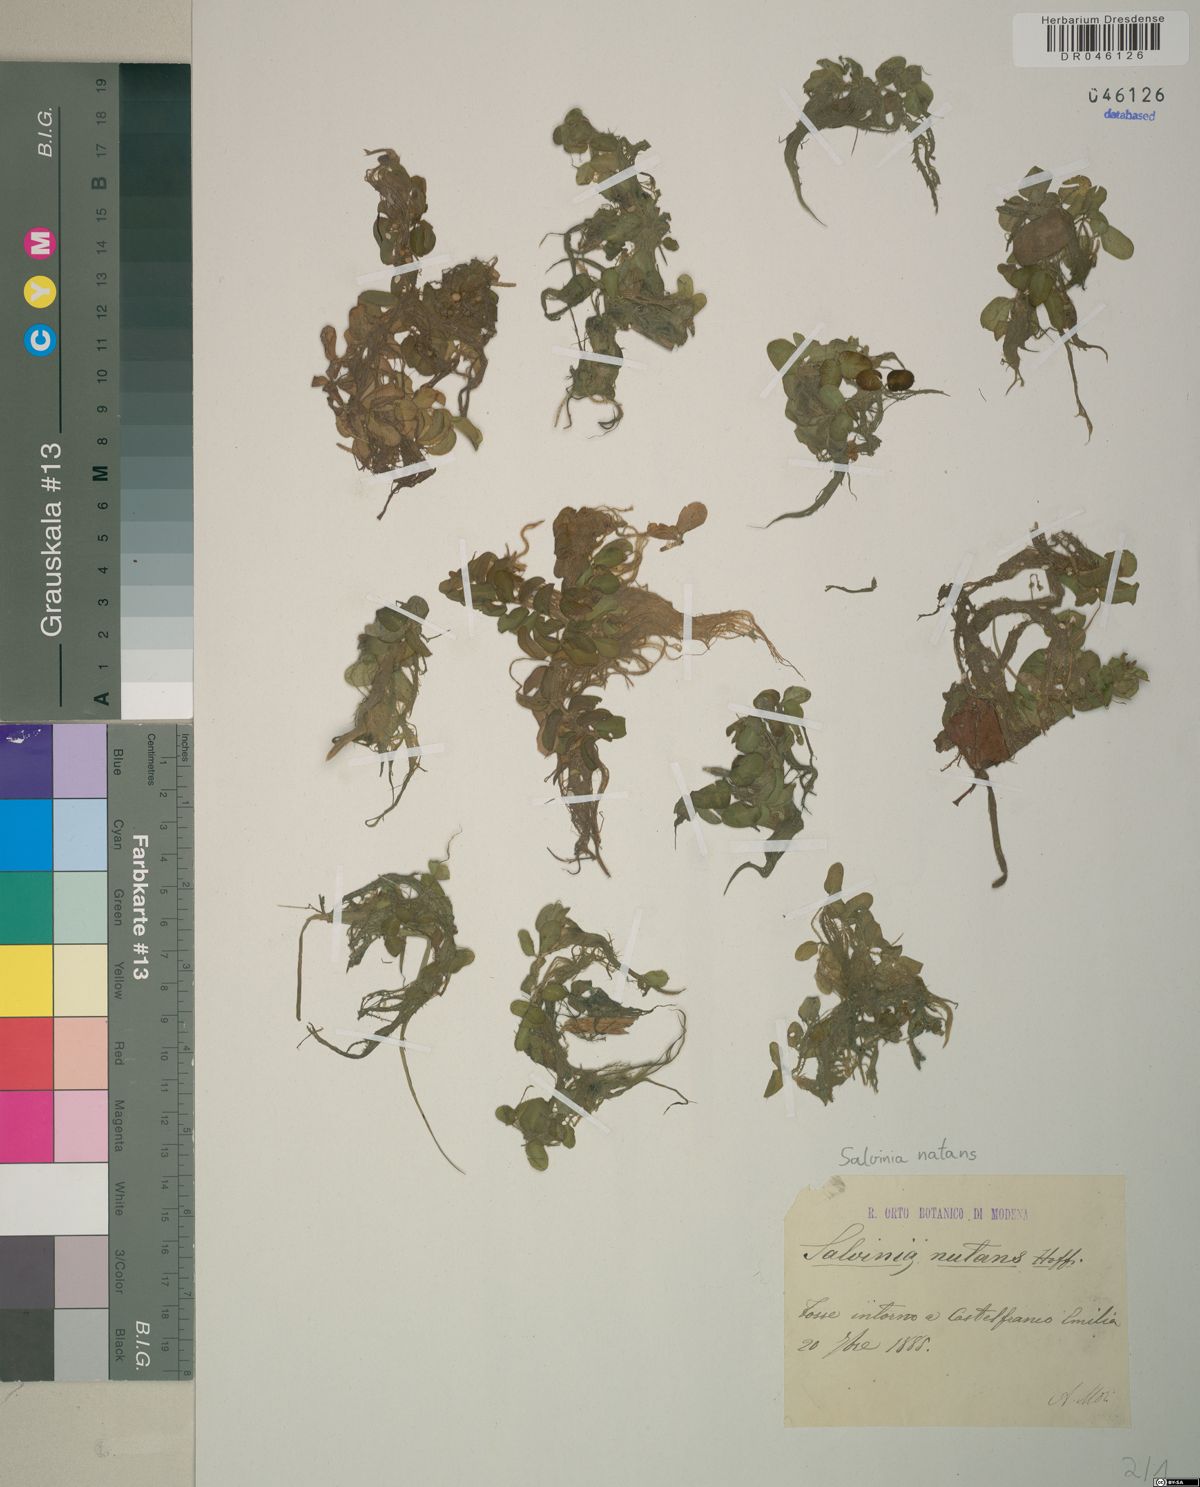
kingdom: Plantae
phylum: Tracheophyta
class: Polypodiopsida
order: Salviniales
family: Salviniaceae
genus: Salvinia
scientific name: Salvinia natans
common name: Floating fern
